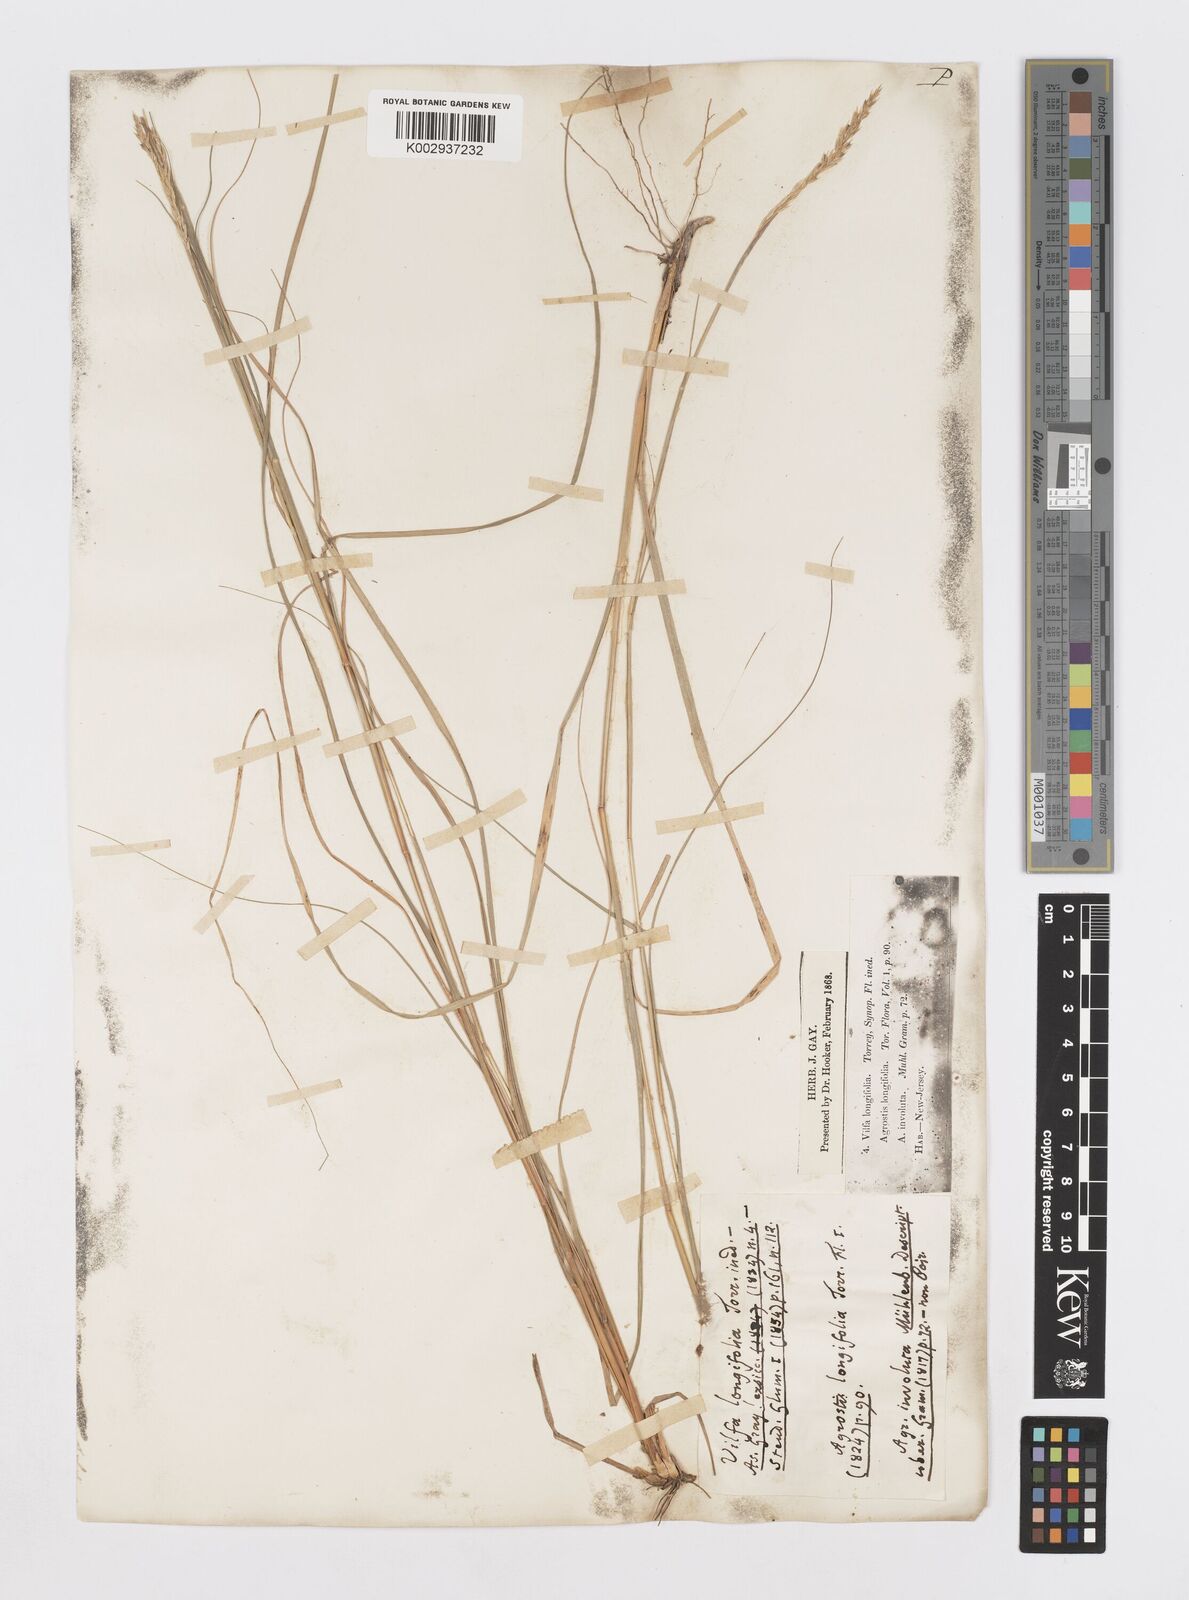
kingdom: Plantae
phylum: Tracheophyta
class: Liliopsida
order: Poales
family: Poaceae
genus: Sporobolus
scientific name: Sporobolus clandestinus
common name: Hidden dropseed
